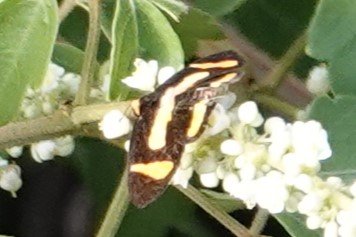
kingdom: Animalia
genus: Symmachia
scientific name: Symmachia tricolor
